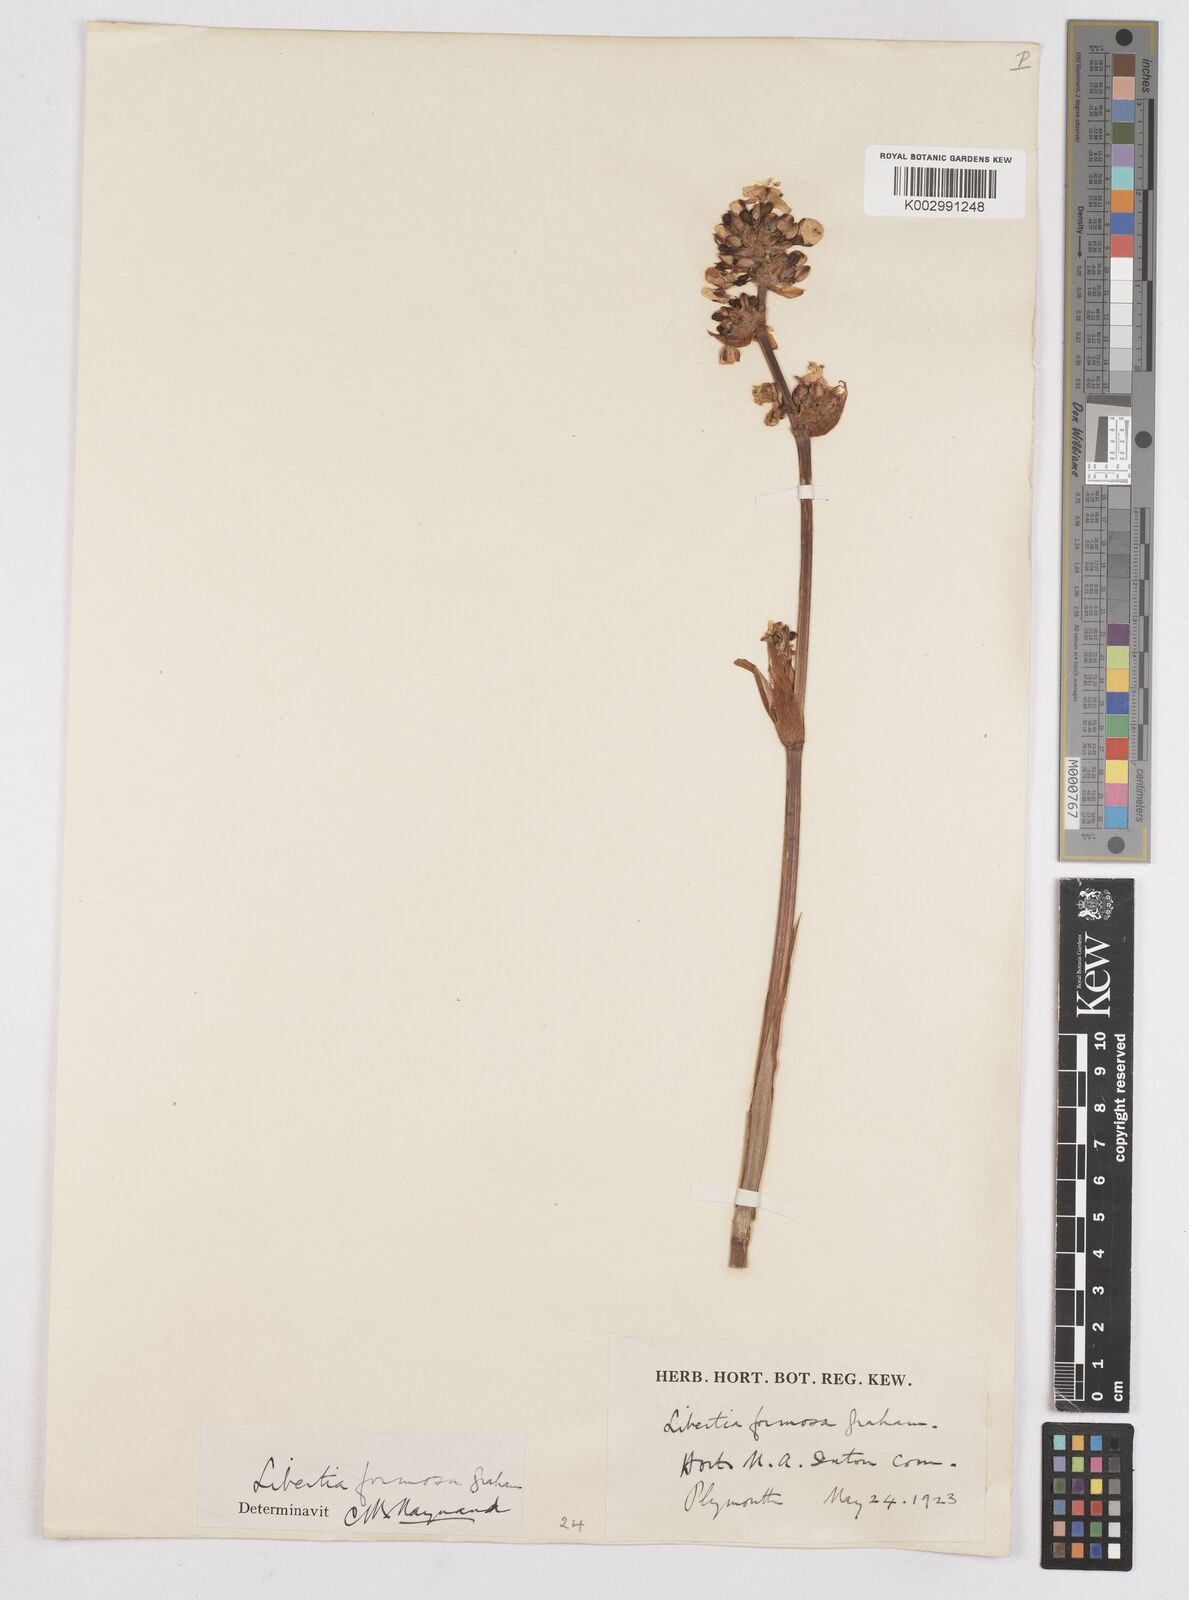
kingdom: Plantae
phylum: Tracheophyta
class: Liliopsida
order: Asparagales
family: Iridaceae
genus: Libertia
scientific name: Libertia chilensis
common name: Satin flower
